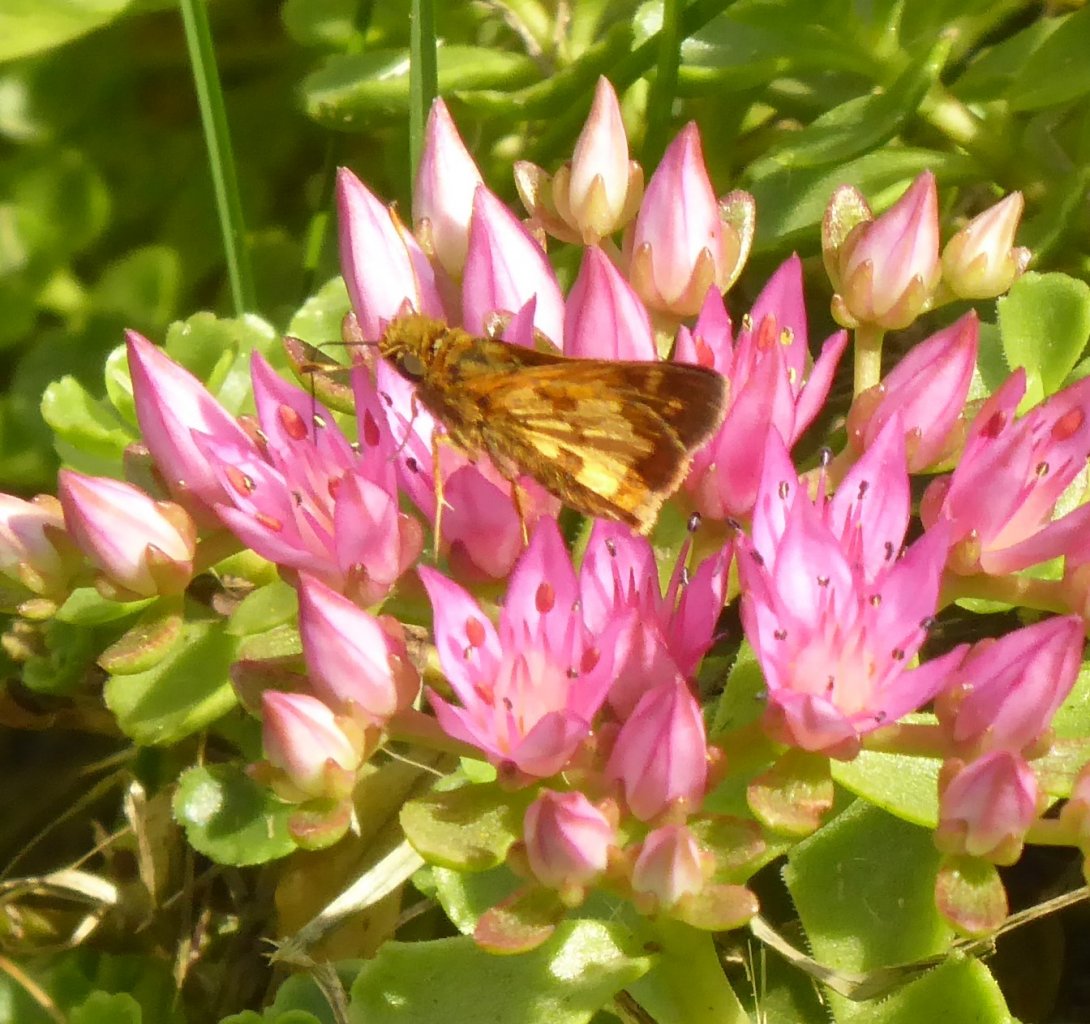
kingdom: Animalia
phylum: Arthropoda
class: Insecta
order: Lepidoptera
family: Hesperiidae
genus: Polites
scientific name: Polites coras
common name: Peck's Skipper
